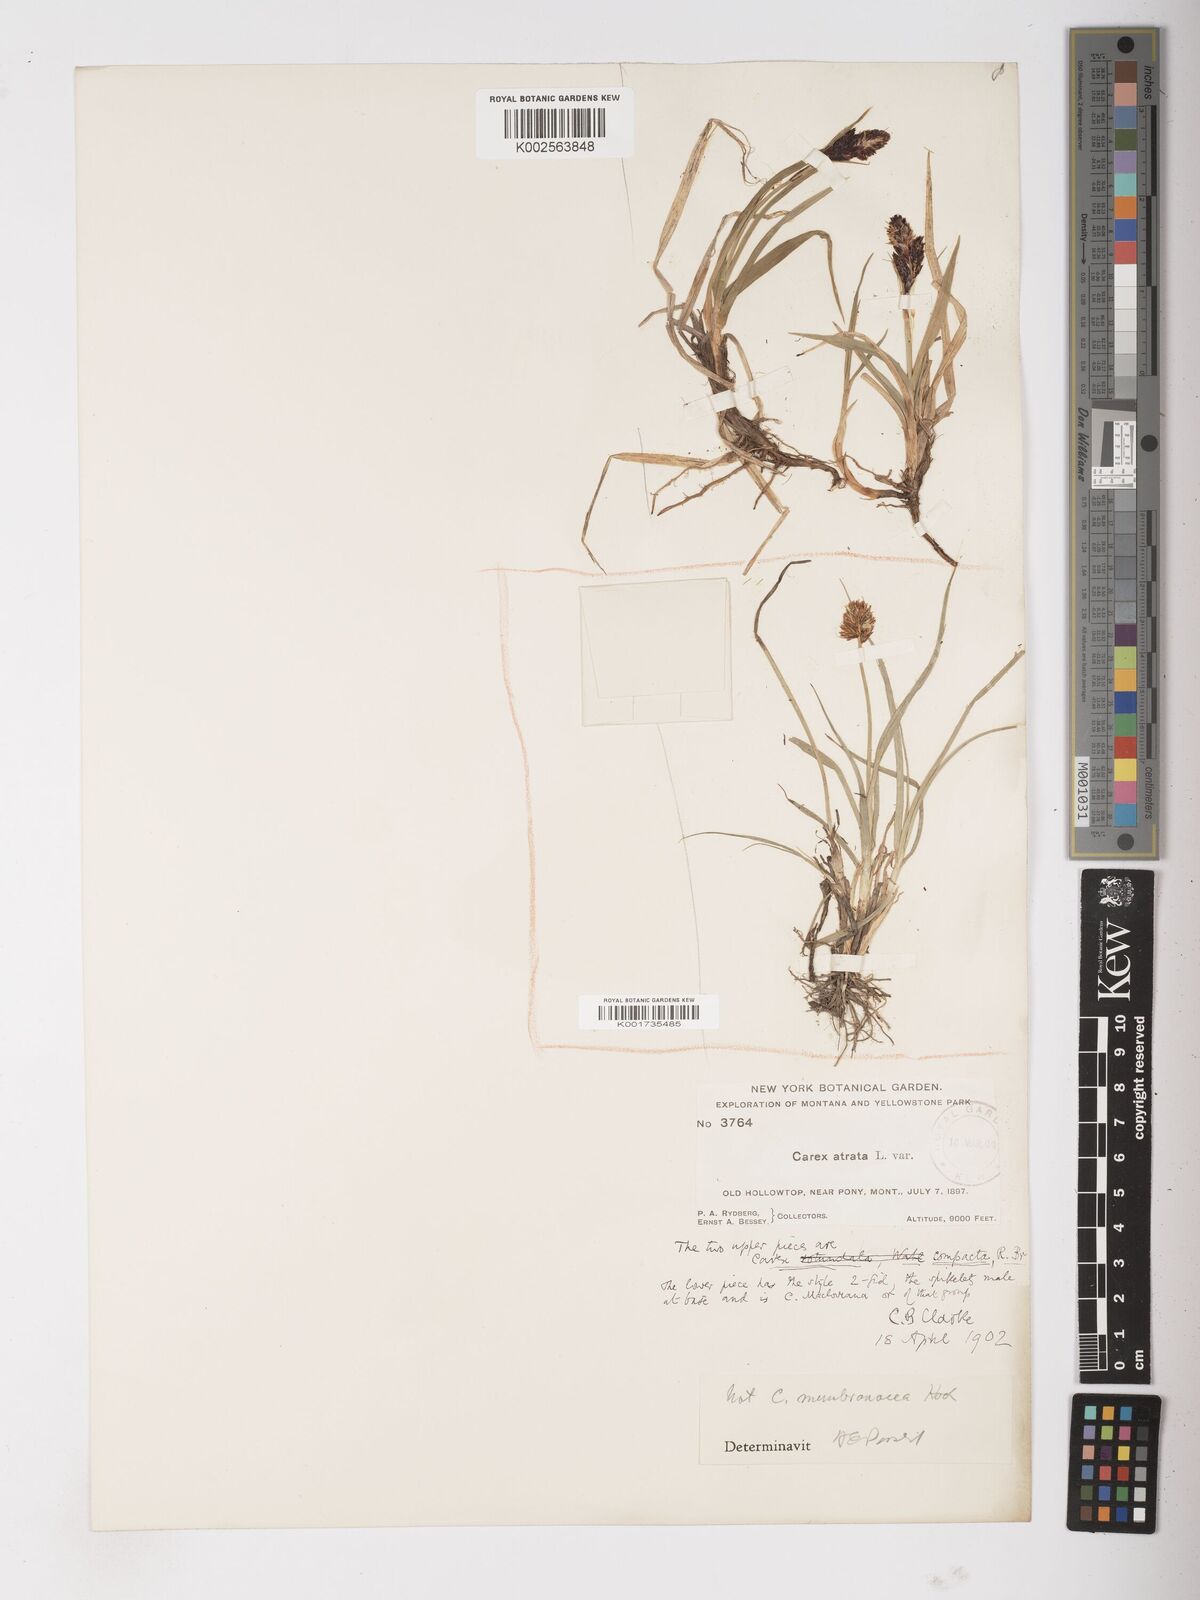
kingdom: Plantae
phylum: Tracheophyta
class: Liliopsida
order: Poales
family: Cyperaceae
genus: Carex
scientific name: Carex membranacea
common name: Fragile sedge
